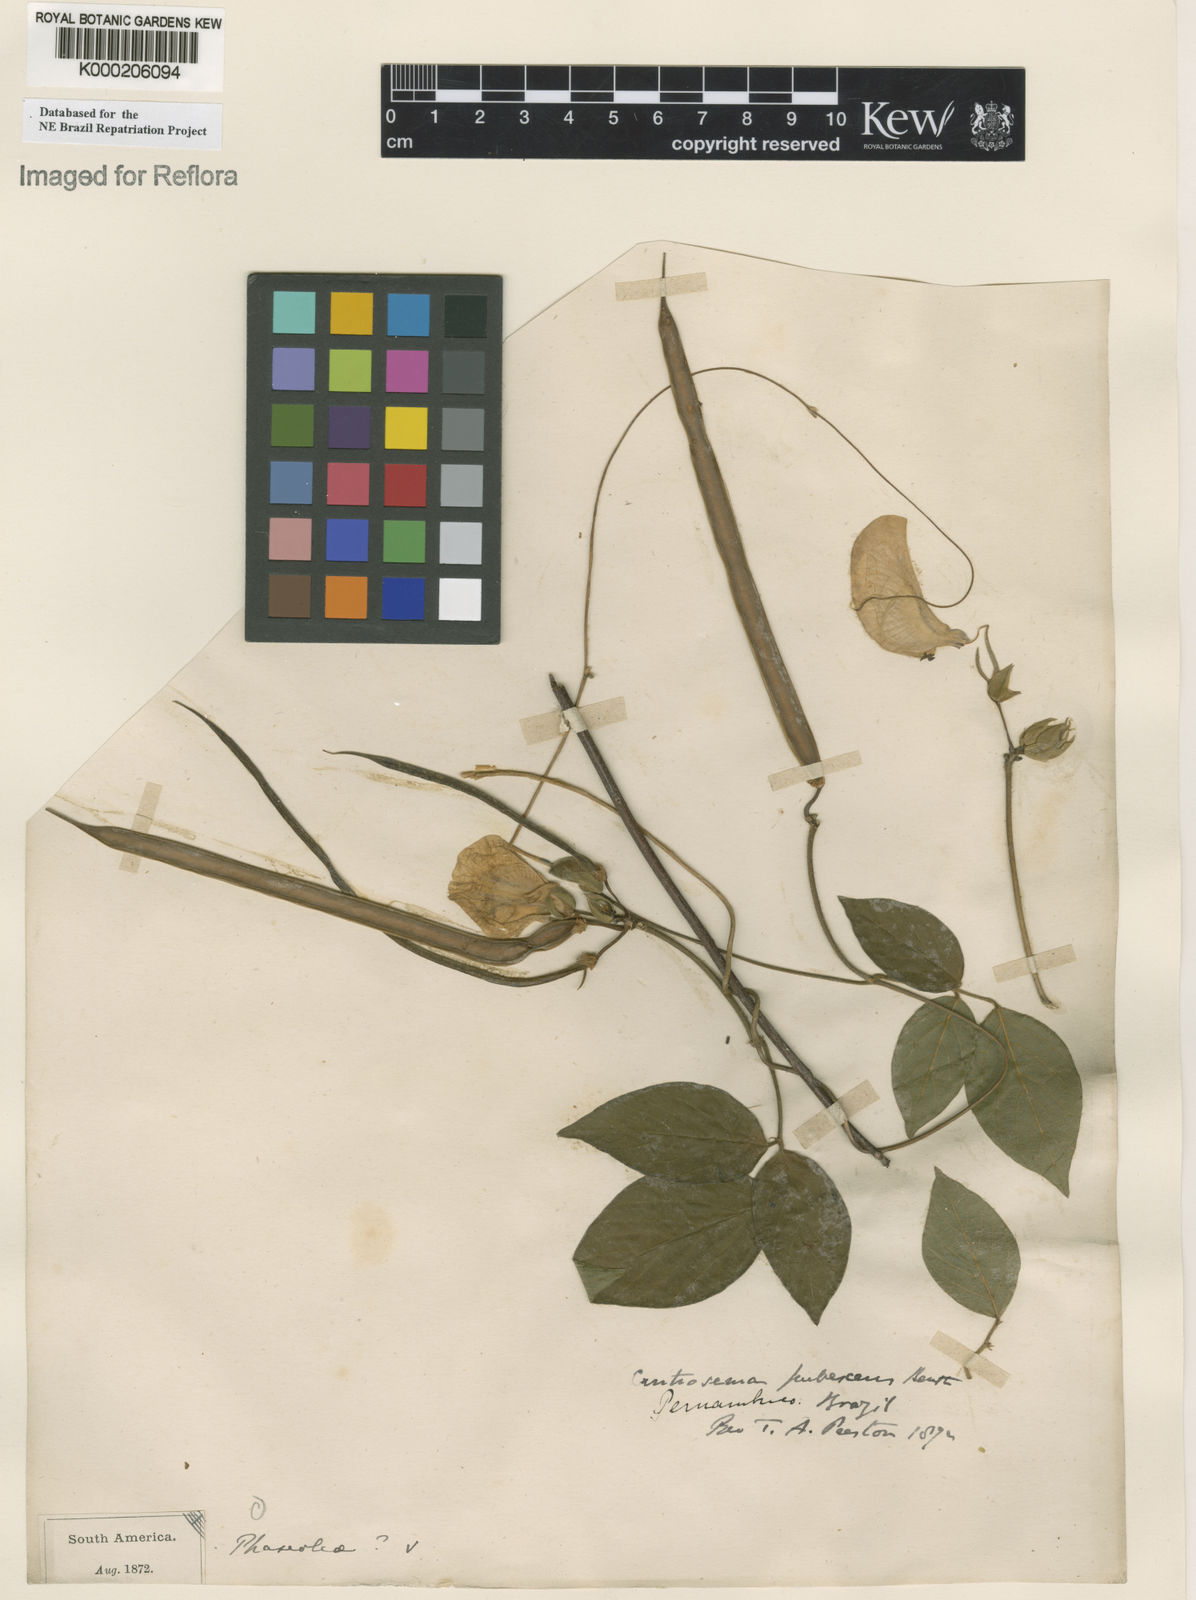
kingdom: Plantae
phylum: Tracheophyta
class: Magnoliopsida
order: Fabales
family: Fabaceae
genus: Centrosema
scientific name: Centrosema arenarium
